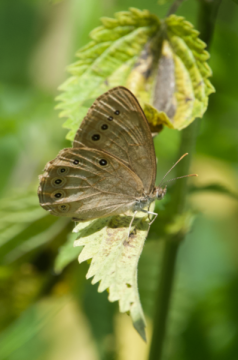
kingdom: Animalia
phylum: Arthropoda
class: Insecta
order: Lepidoptera
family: Nymphalidae
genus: Lethe
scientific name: Lethe eurydice
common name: Eyed Brown
